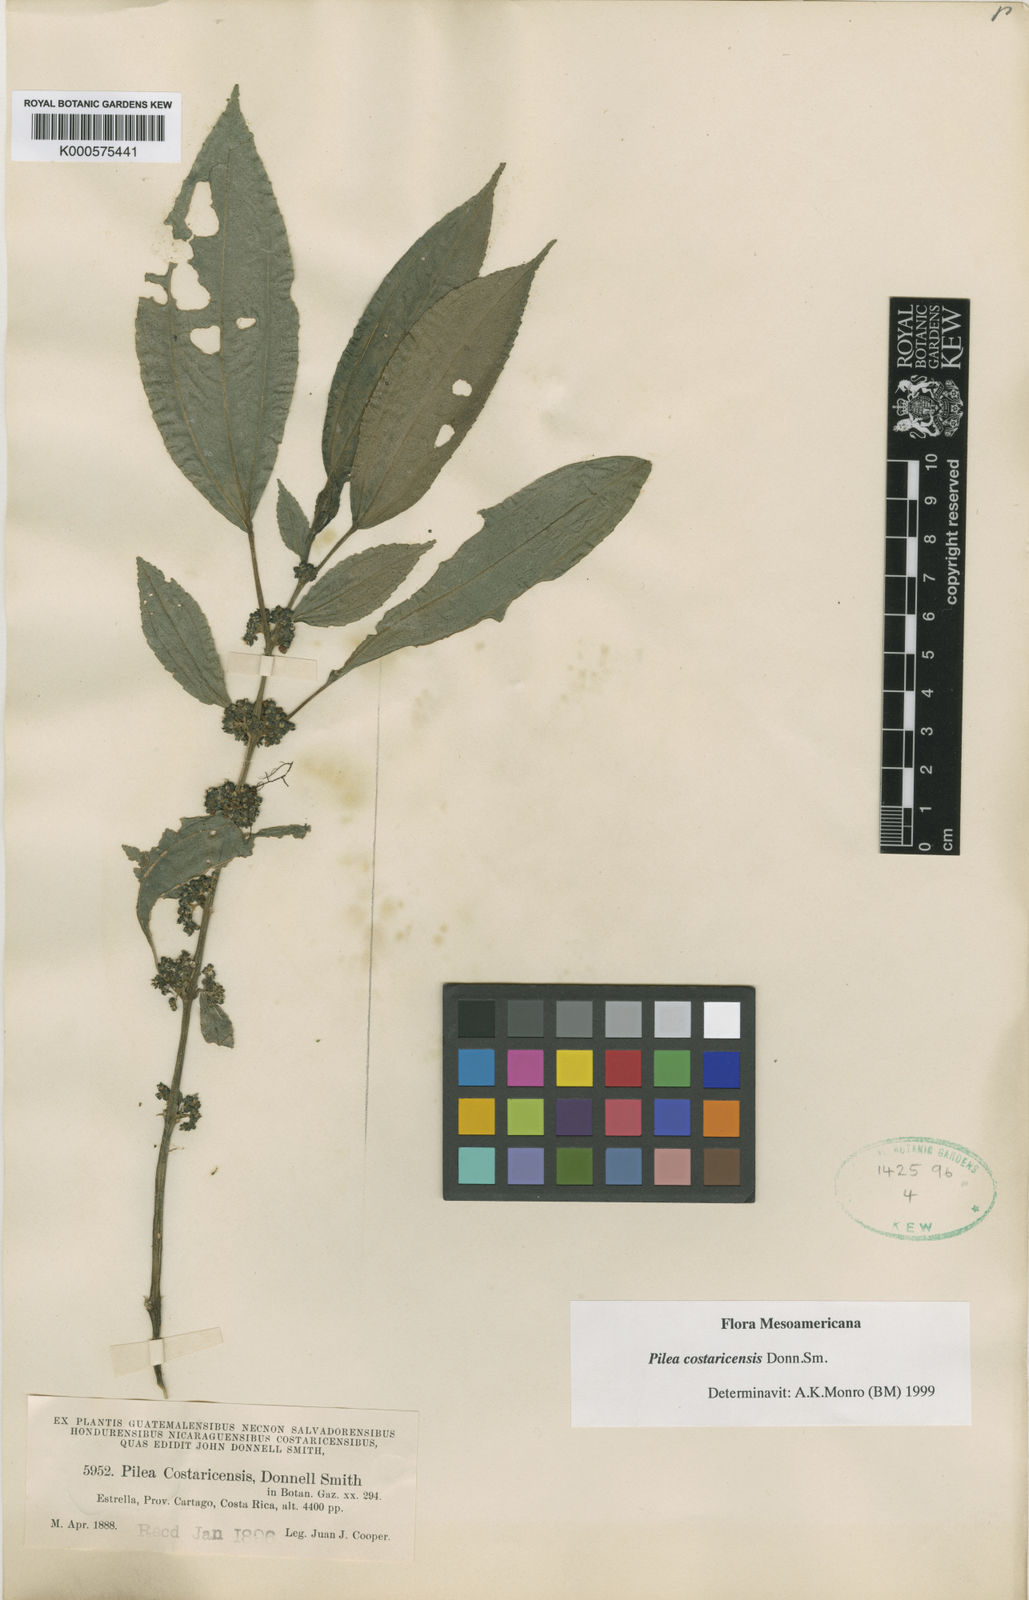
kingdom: Plantae
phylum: Tracheophyta
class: Magnoliopsida
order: Rosales
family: Urticaceae
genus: Pilea
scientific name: Pilea costaricensis
